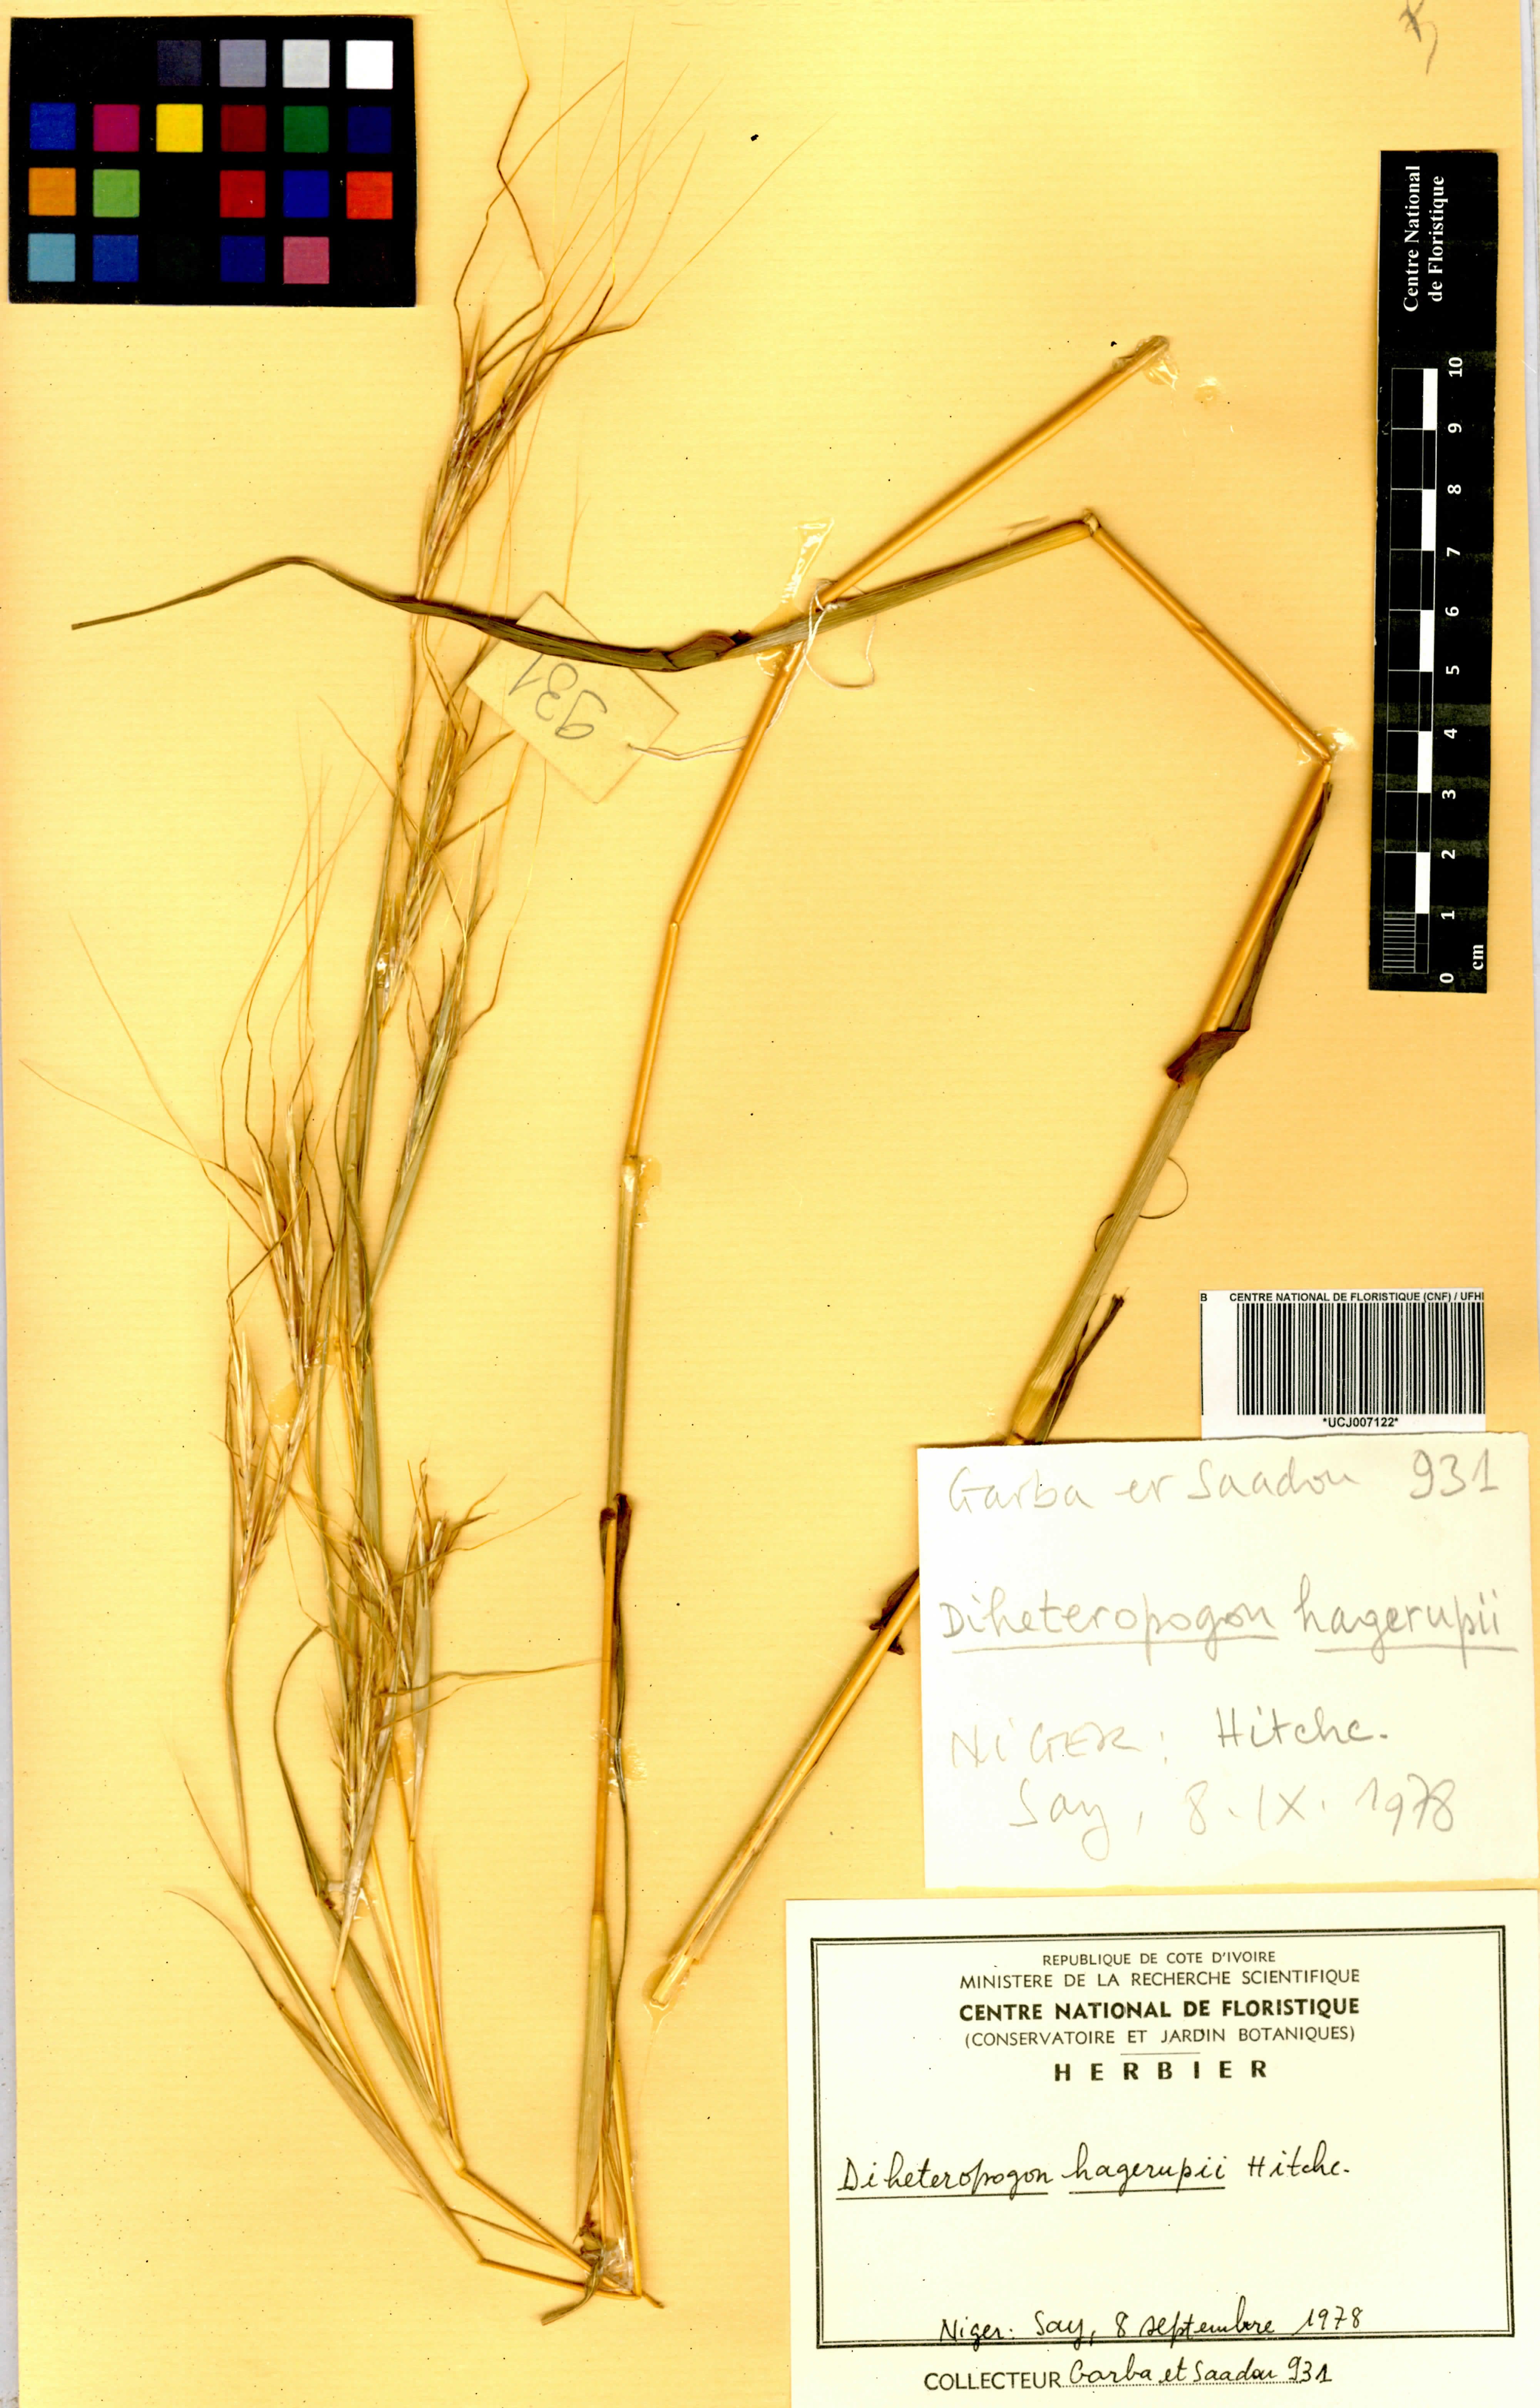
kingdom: Plantae
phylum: Tracheophyta
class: Liliopsida
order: Poales
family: Poaceae
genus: Diheteropogon
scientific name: Diheteropogon hagerupii
